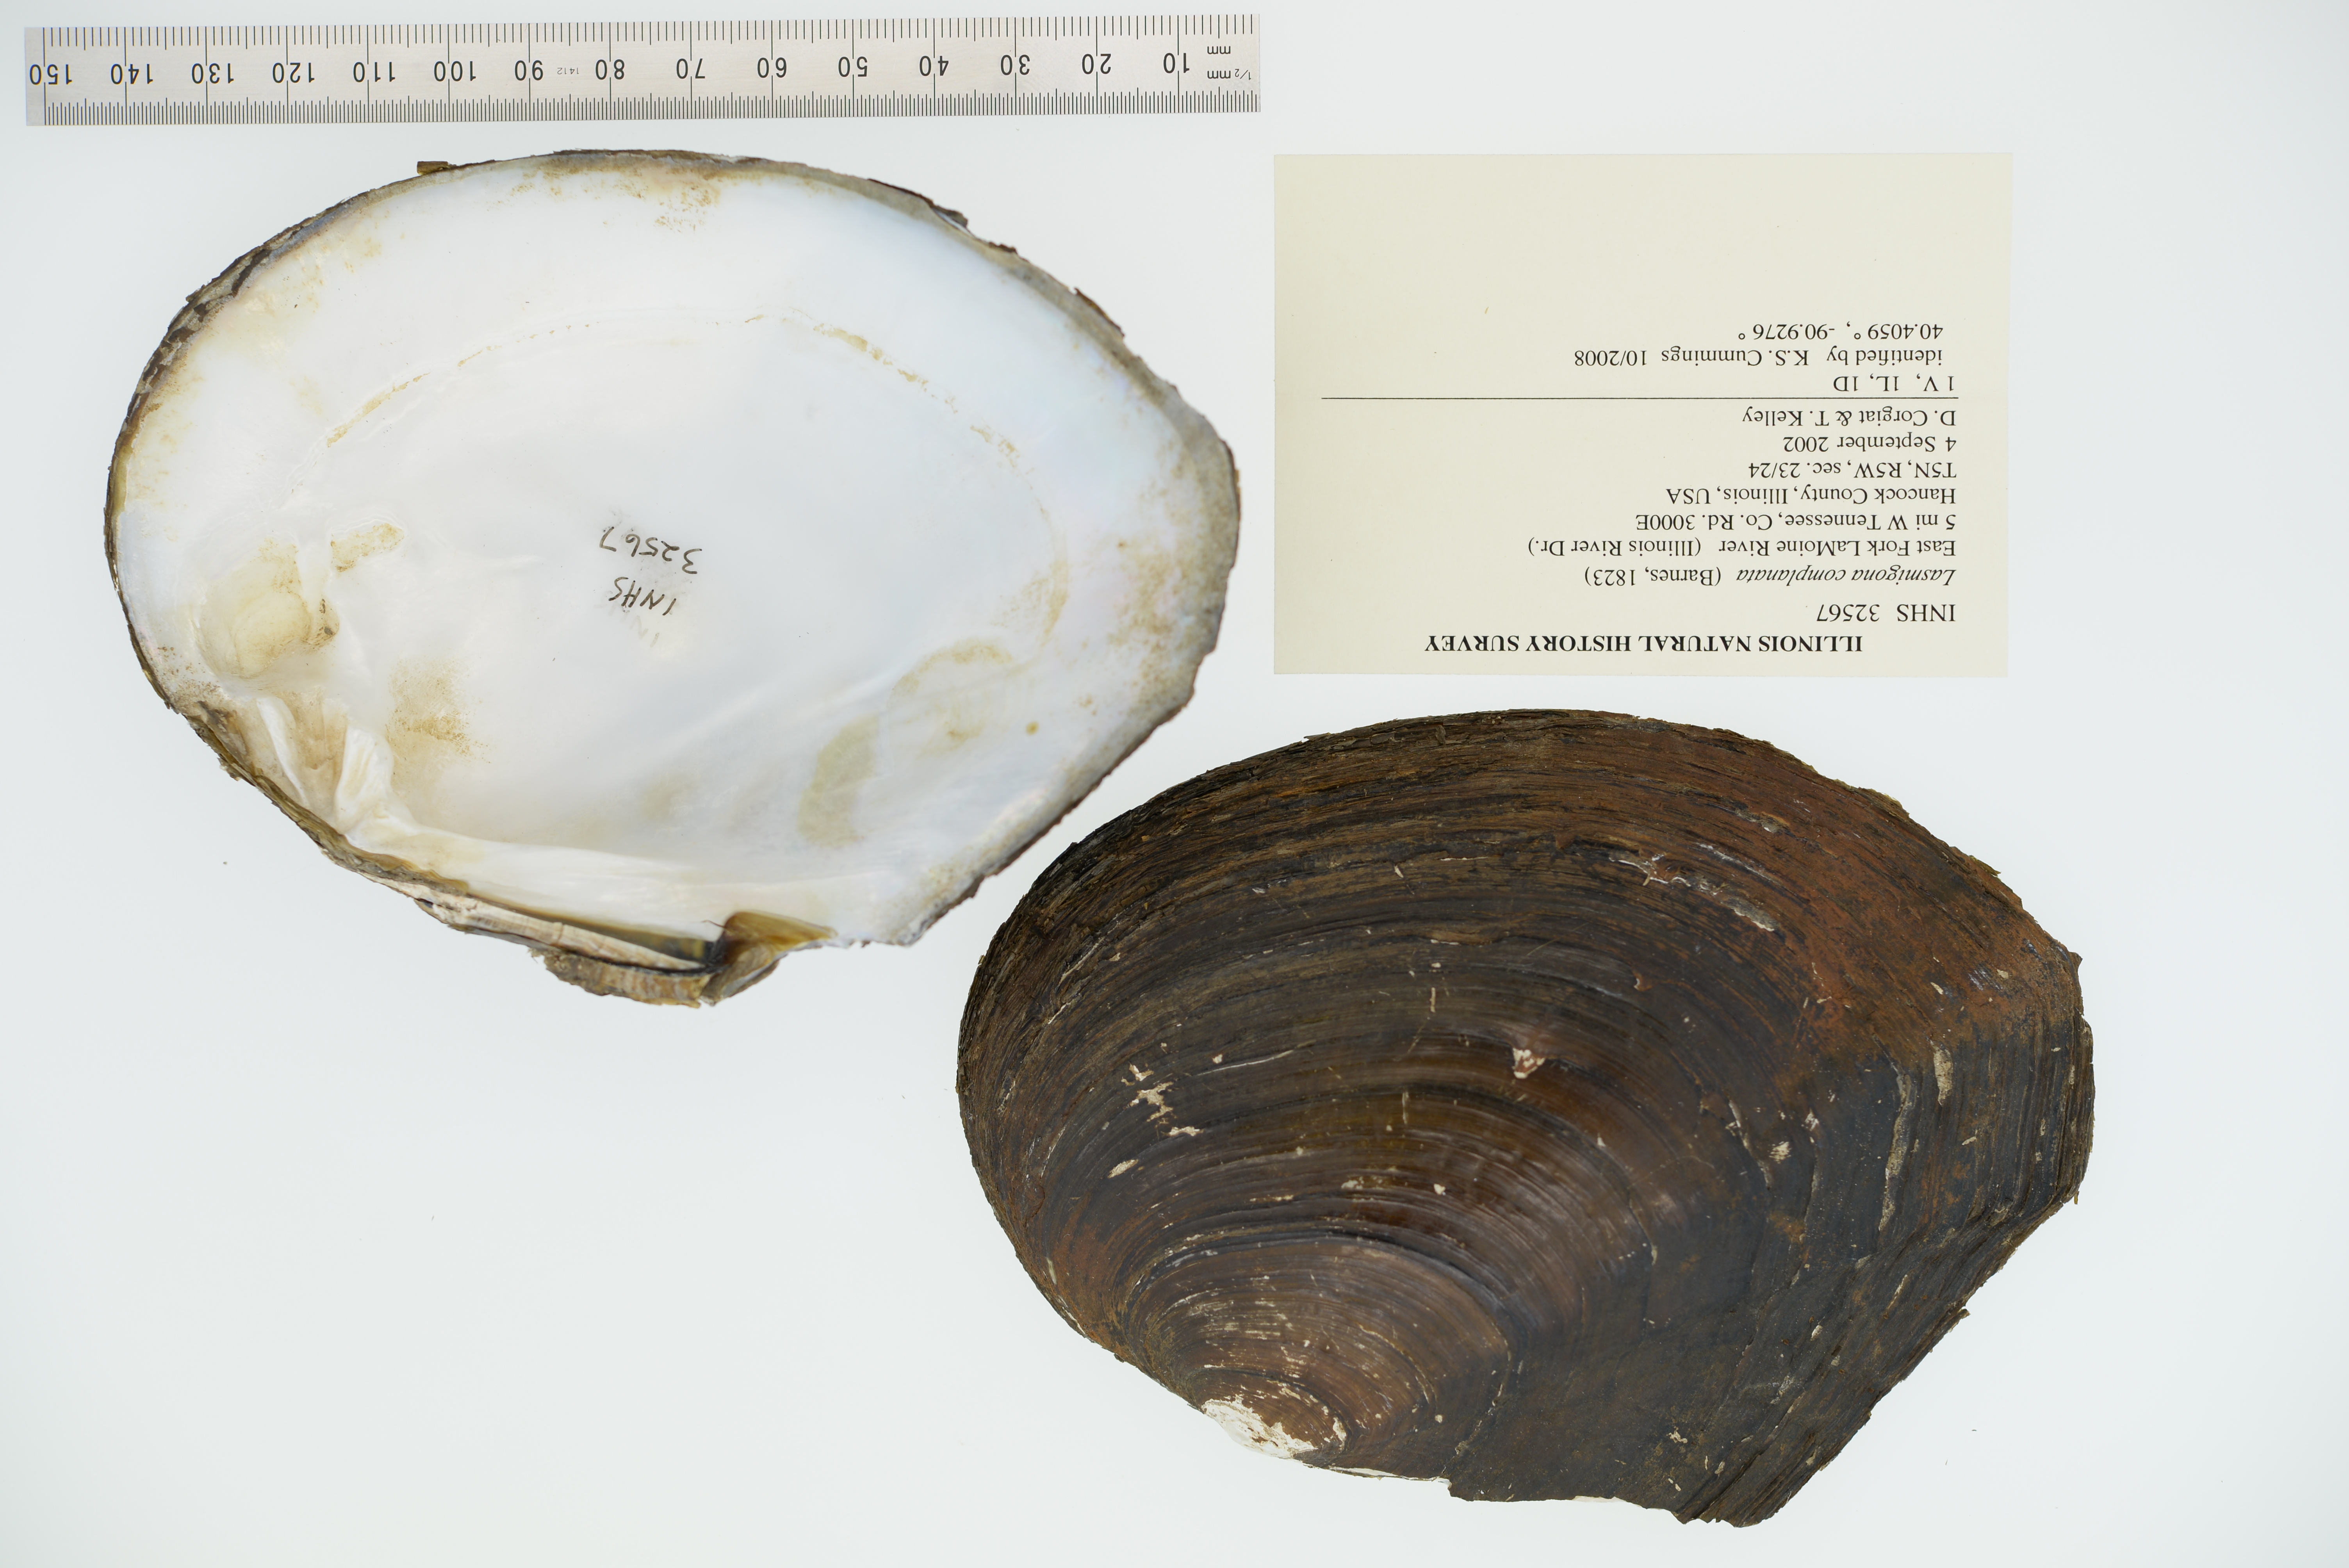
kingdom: Animalia
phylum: Mollusca
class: Bivalvia
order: Unionida
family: Unionidae
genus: Lasmigona
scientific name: Lasmigona complanata
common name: White heelsplitter
